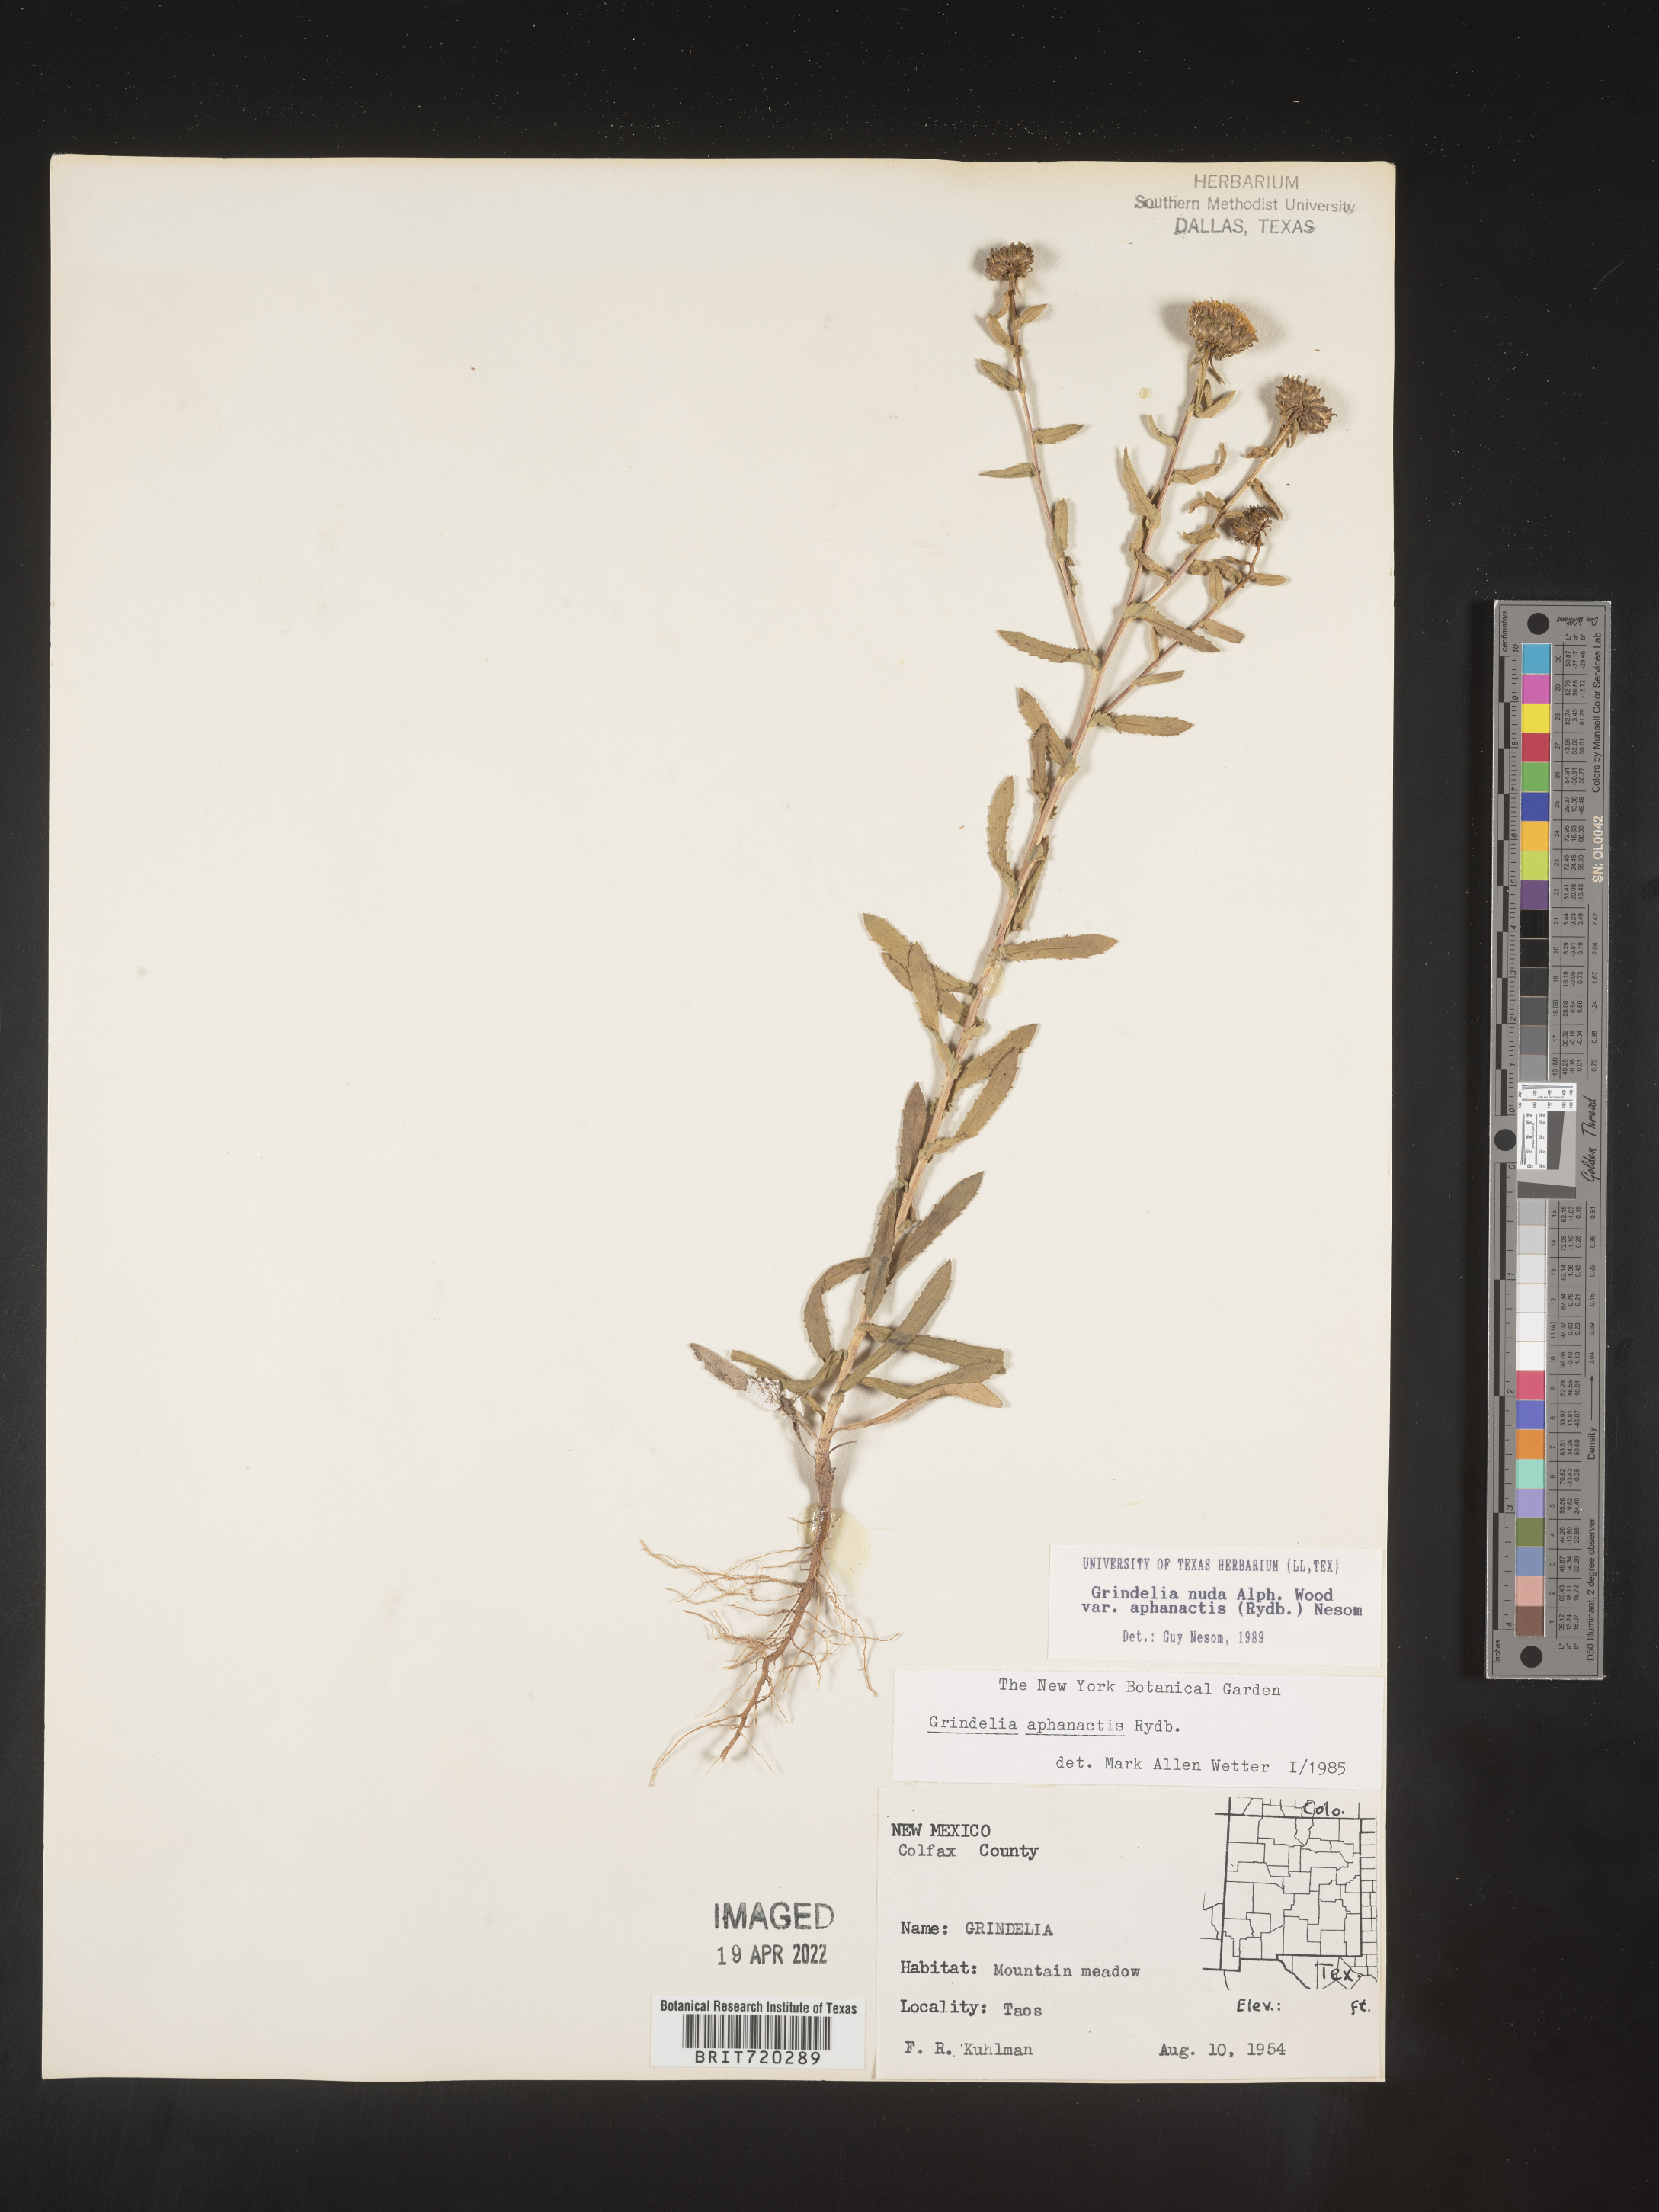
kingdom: Plantae
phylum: Tracheophyta
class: Magnoliopsida
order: Asterales
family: Asteraceae
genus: Grindelia
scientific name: Grindelia nuda
